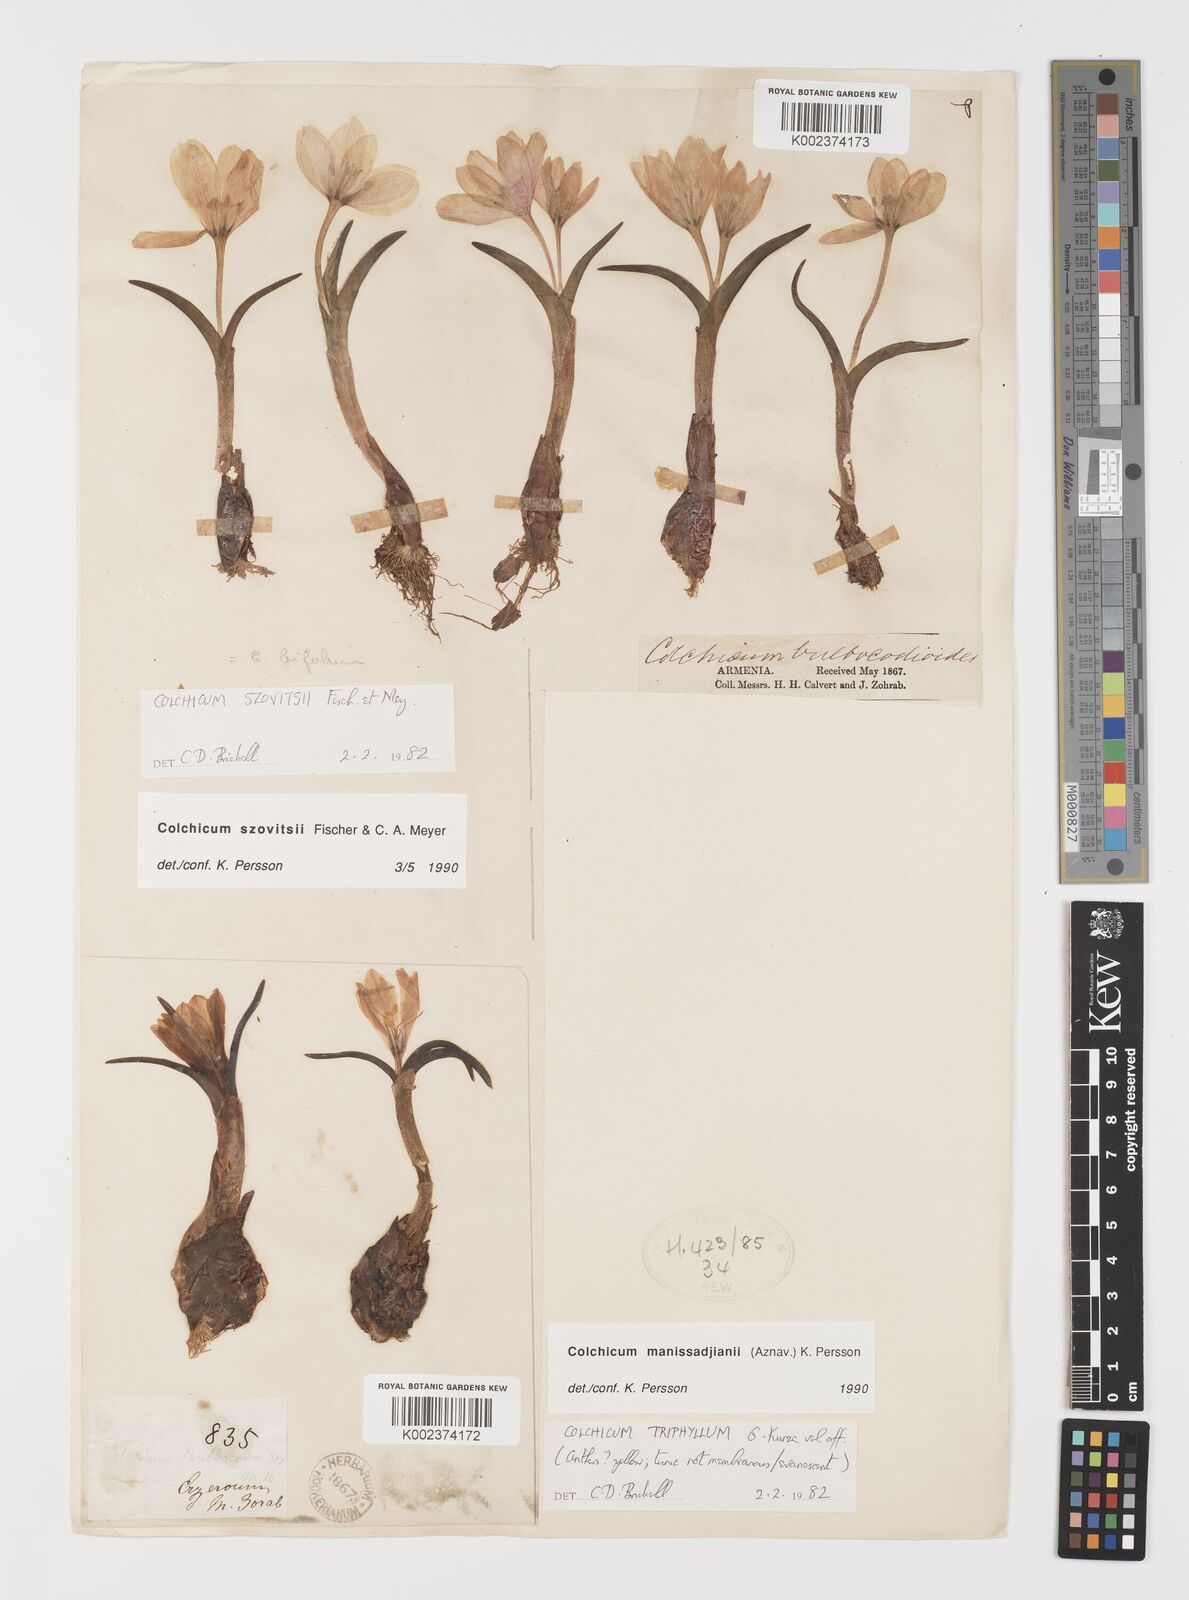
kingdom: Plantae
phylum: Tracheophyta
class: Liliopsida
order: Liliales
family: Colchicaceae
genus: Colchicum
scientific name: Colchicum manissadjianii
